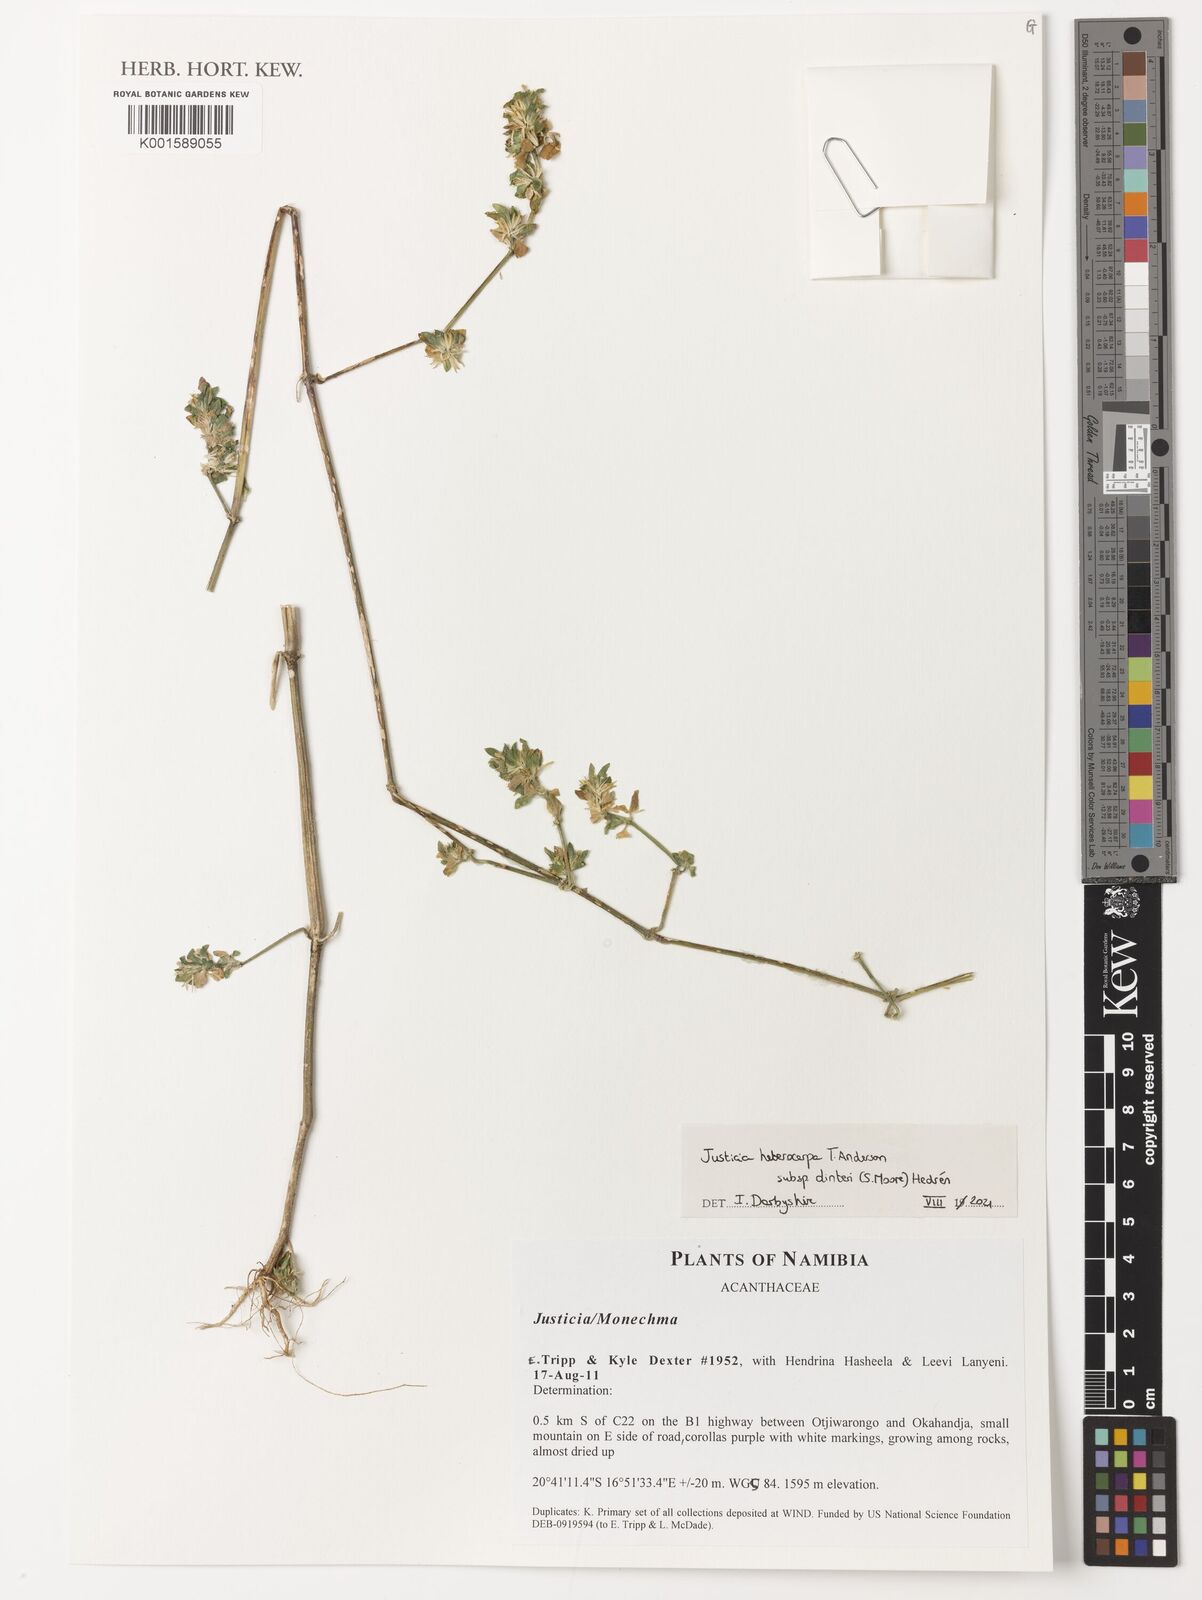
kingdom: Plantae
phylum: Tracheophyta
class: Magnoliopsida
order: Lamiales
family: Acanthaceae
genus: Justicia
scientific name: Justicia heterocarpa
